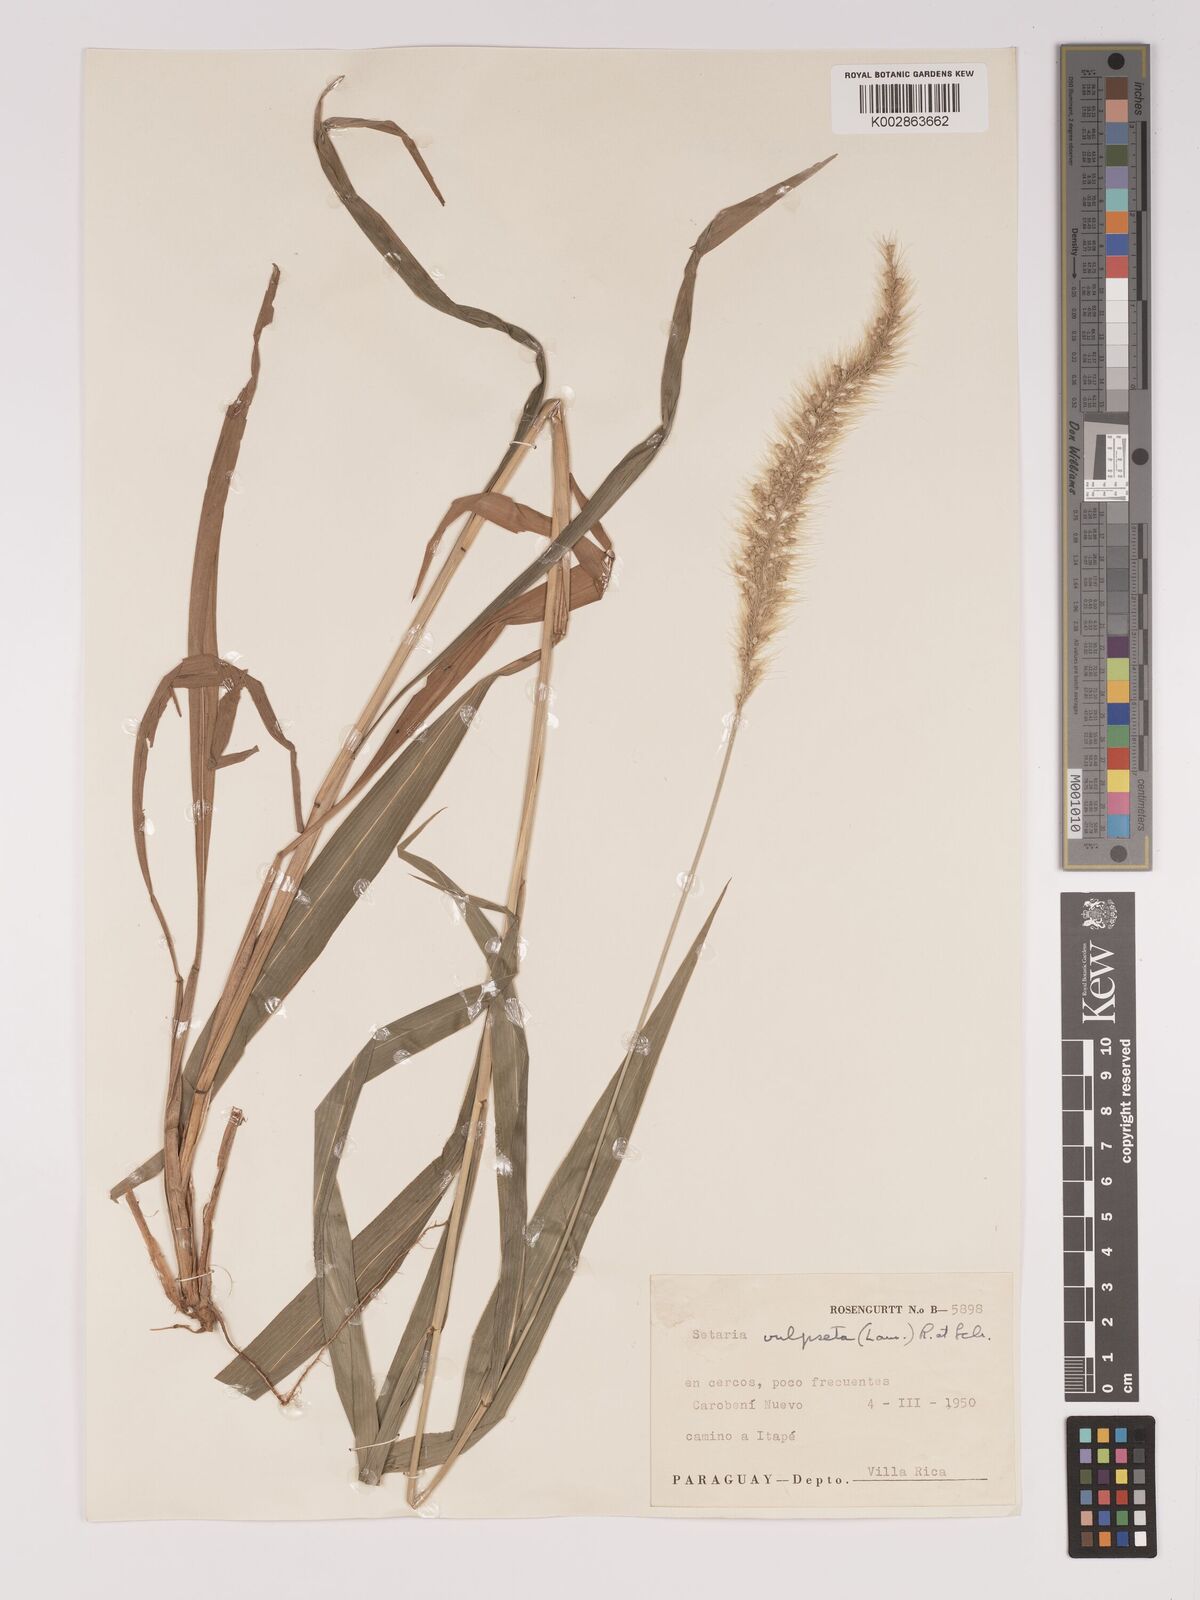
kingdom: Plantae
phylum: Tracheophyta
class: Liliopsida
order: Poales
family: Poaceae
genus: Setaria
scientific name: Setaria vulpiseta
